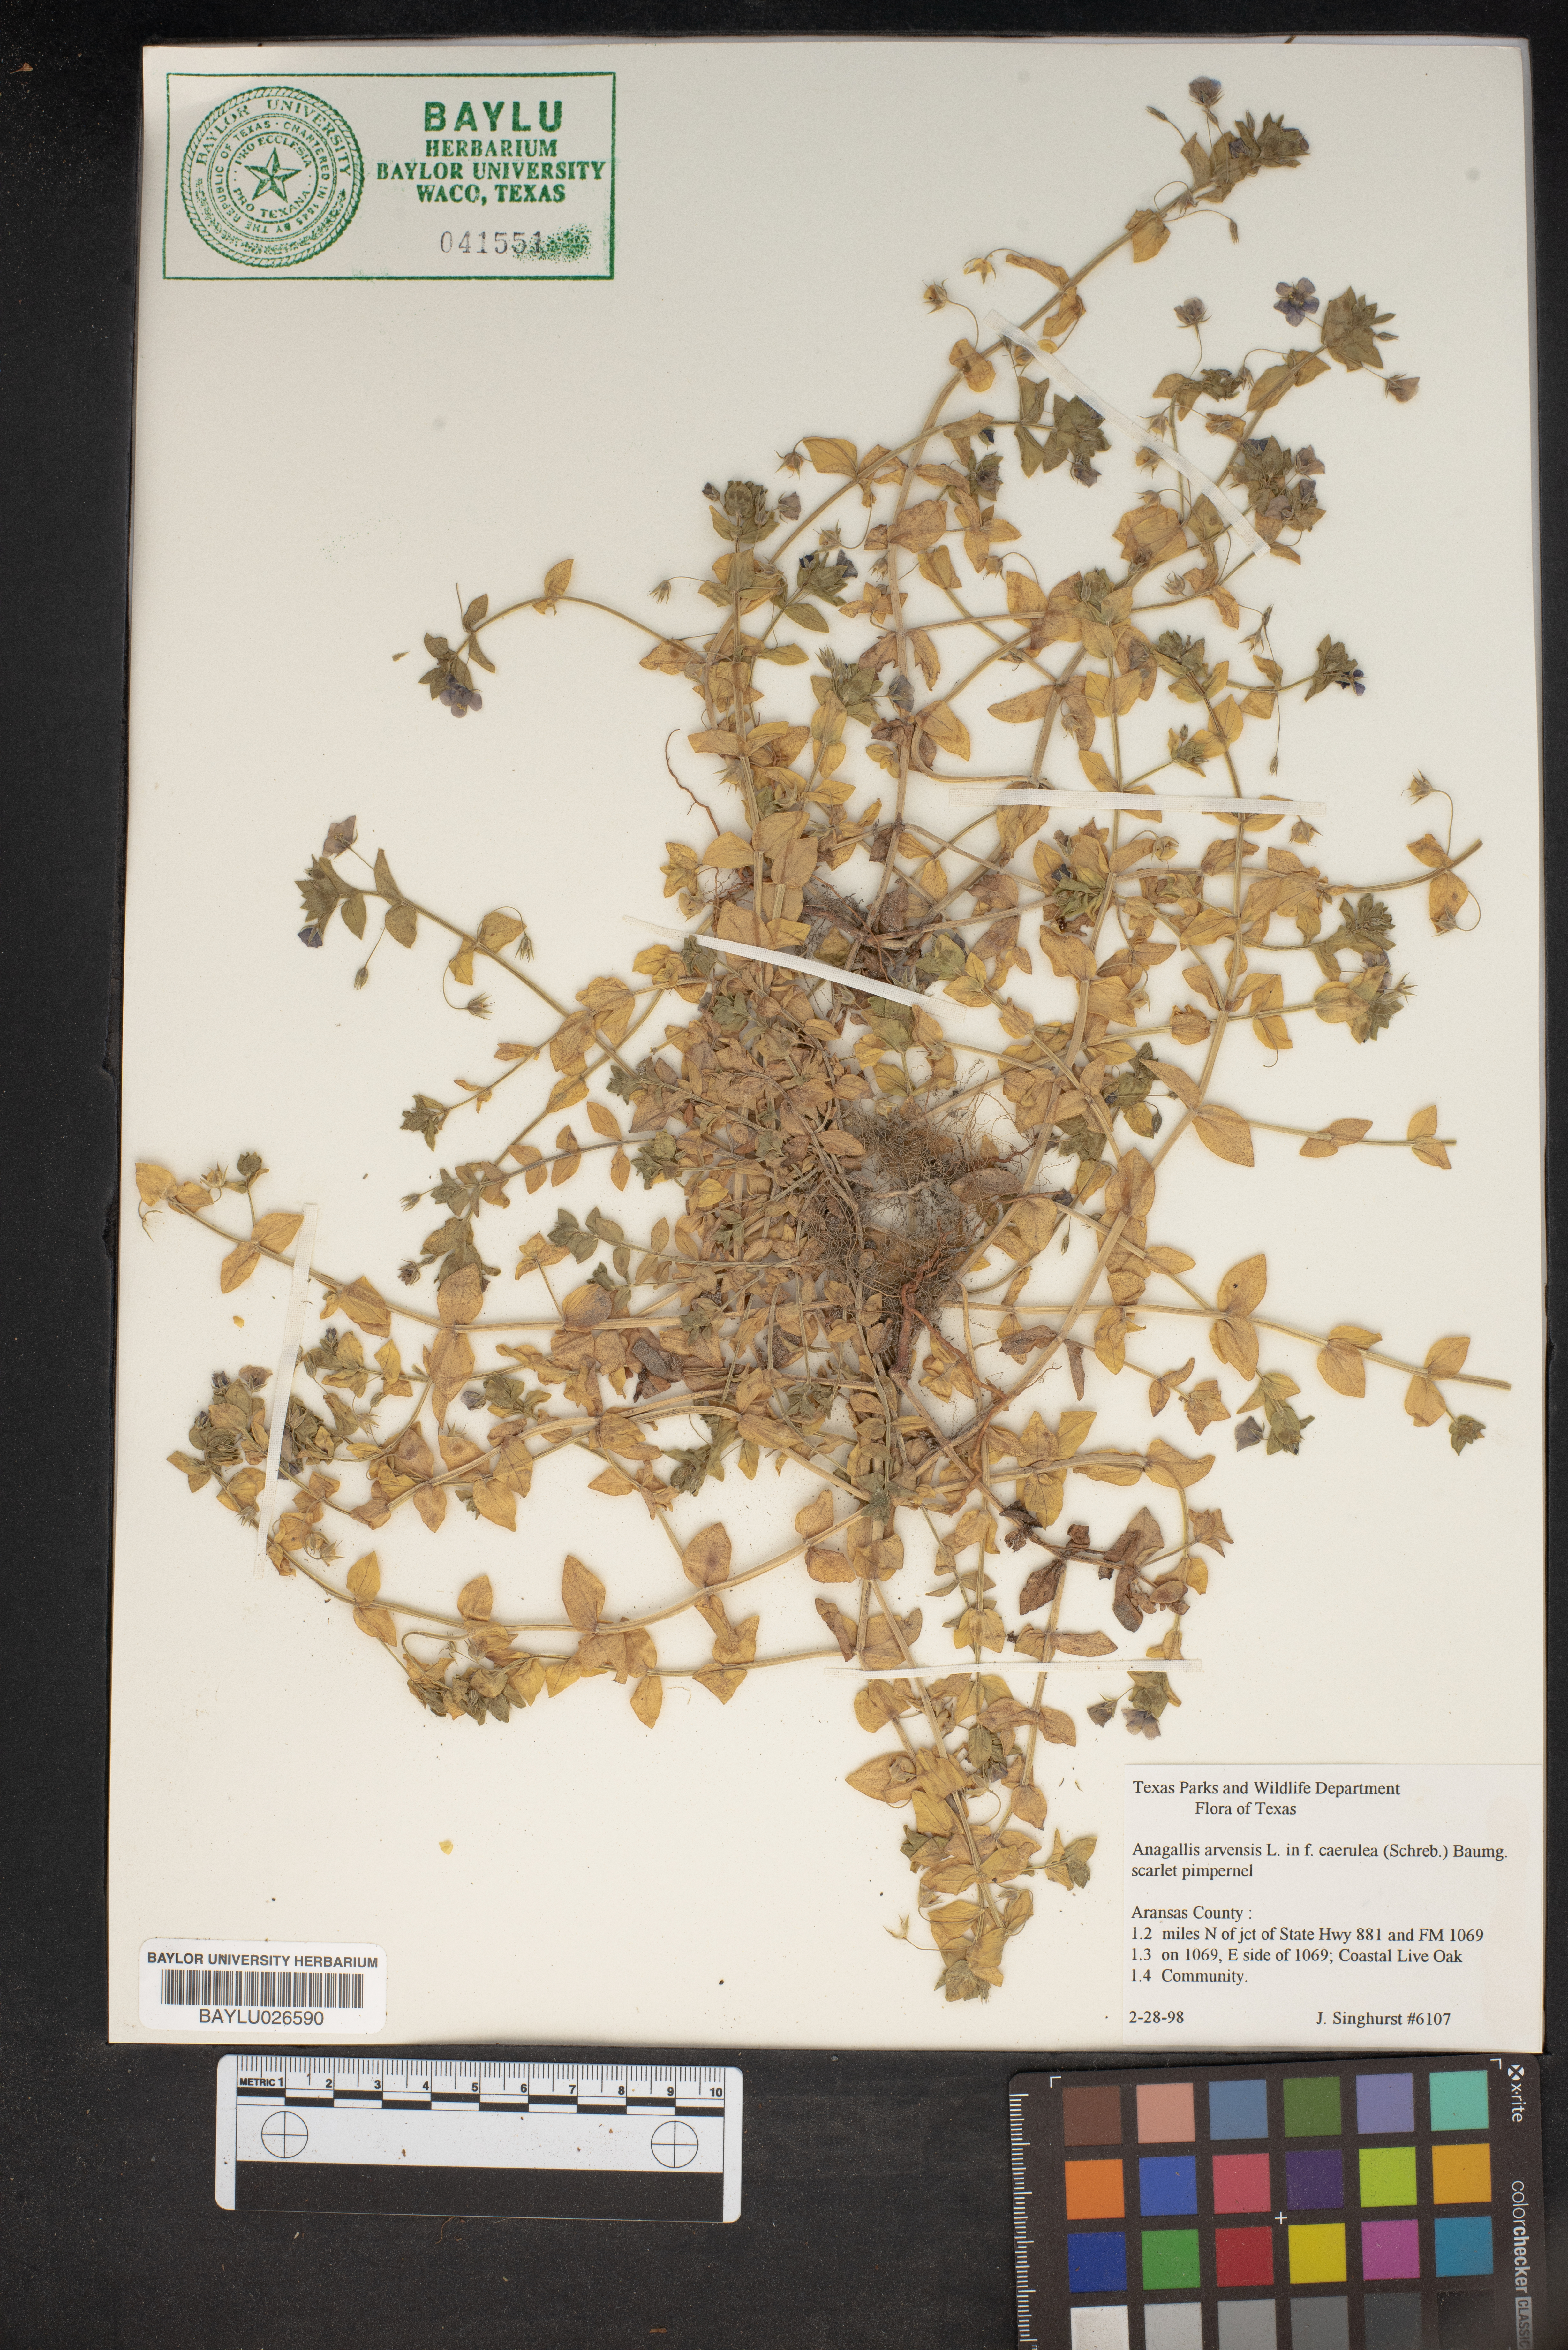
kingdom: Plantae
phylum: Tracheophyta
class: Magnoliopsida
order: Ericales
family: Primulaceae
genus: Lysimachia
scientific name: Lysimachia arvensis
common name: Scarlet pimpernel
